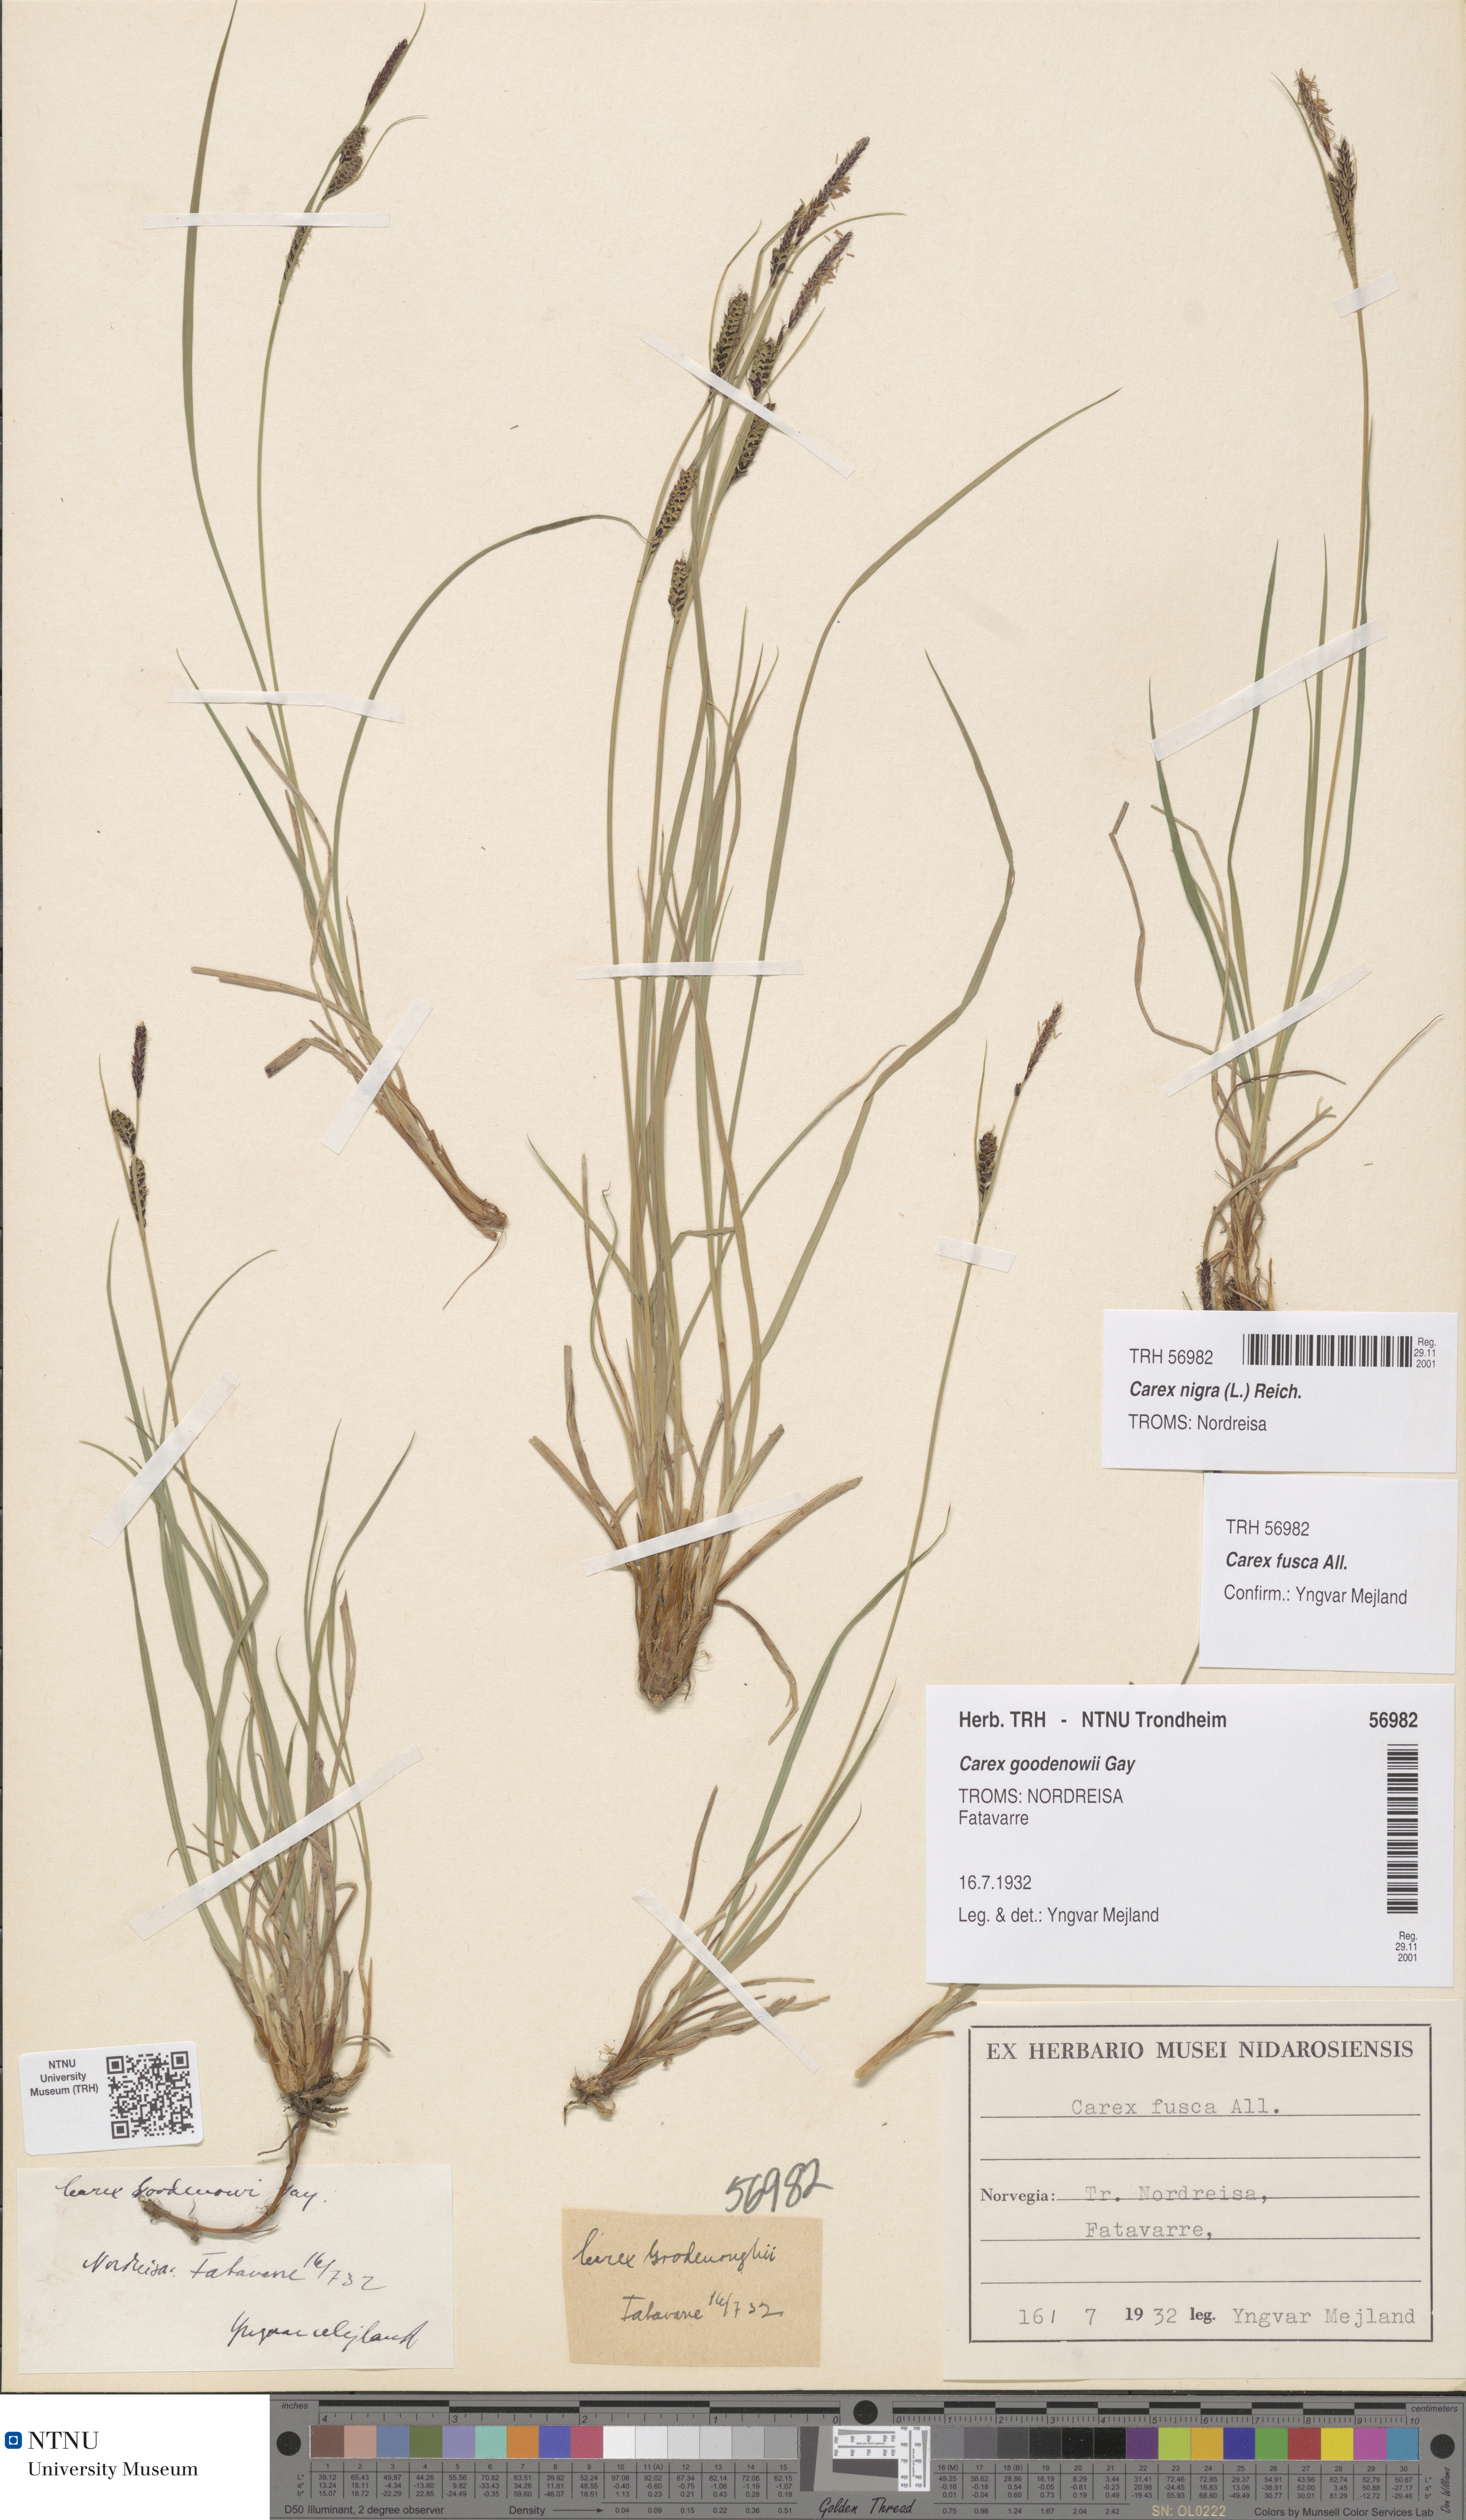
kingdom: Plantae
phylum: Tracheophyta
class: Liliopsida
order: Poales
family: Cyperaceae
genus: Carex
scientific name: Carex nigra
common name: Common sedge
